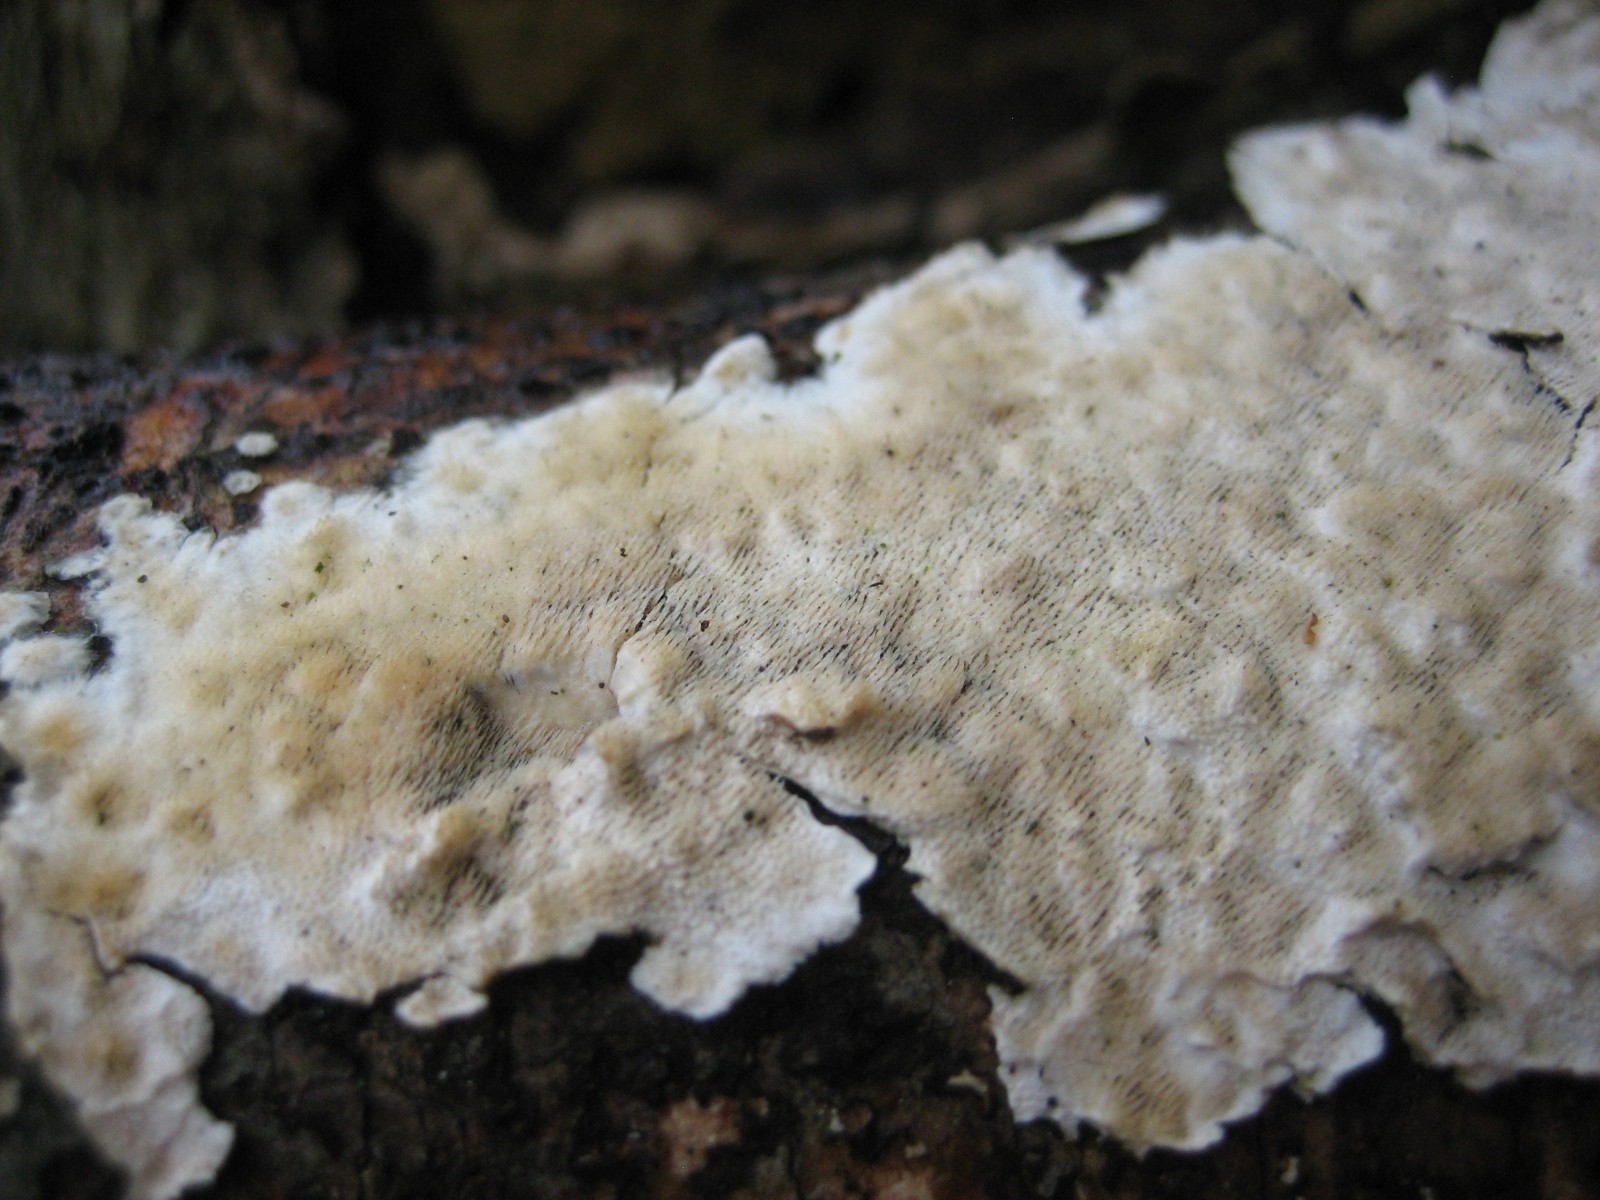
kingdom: Fungi
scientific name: Fungi
